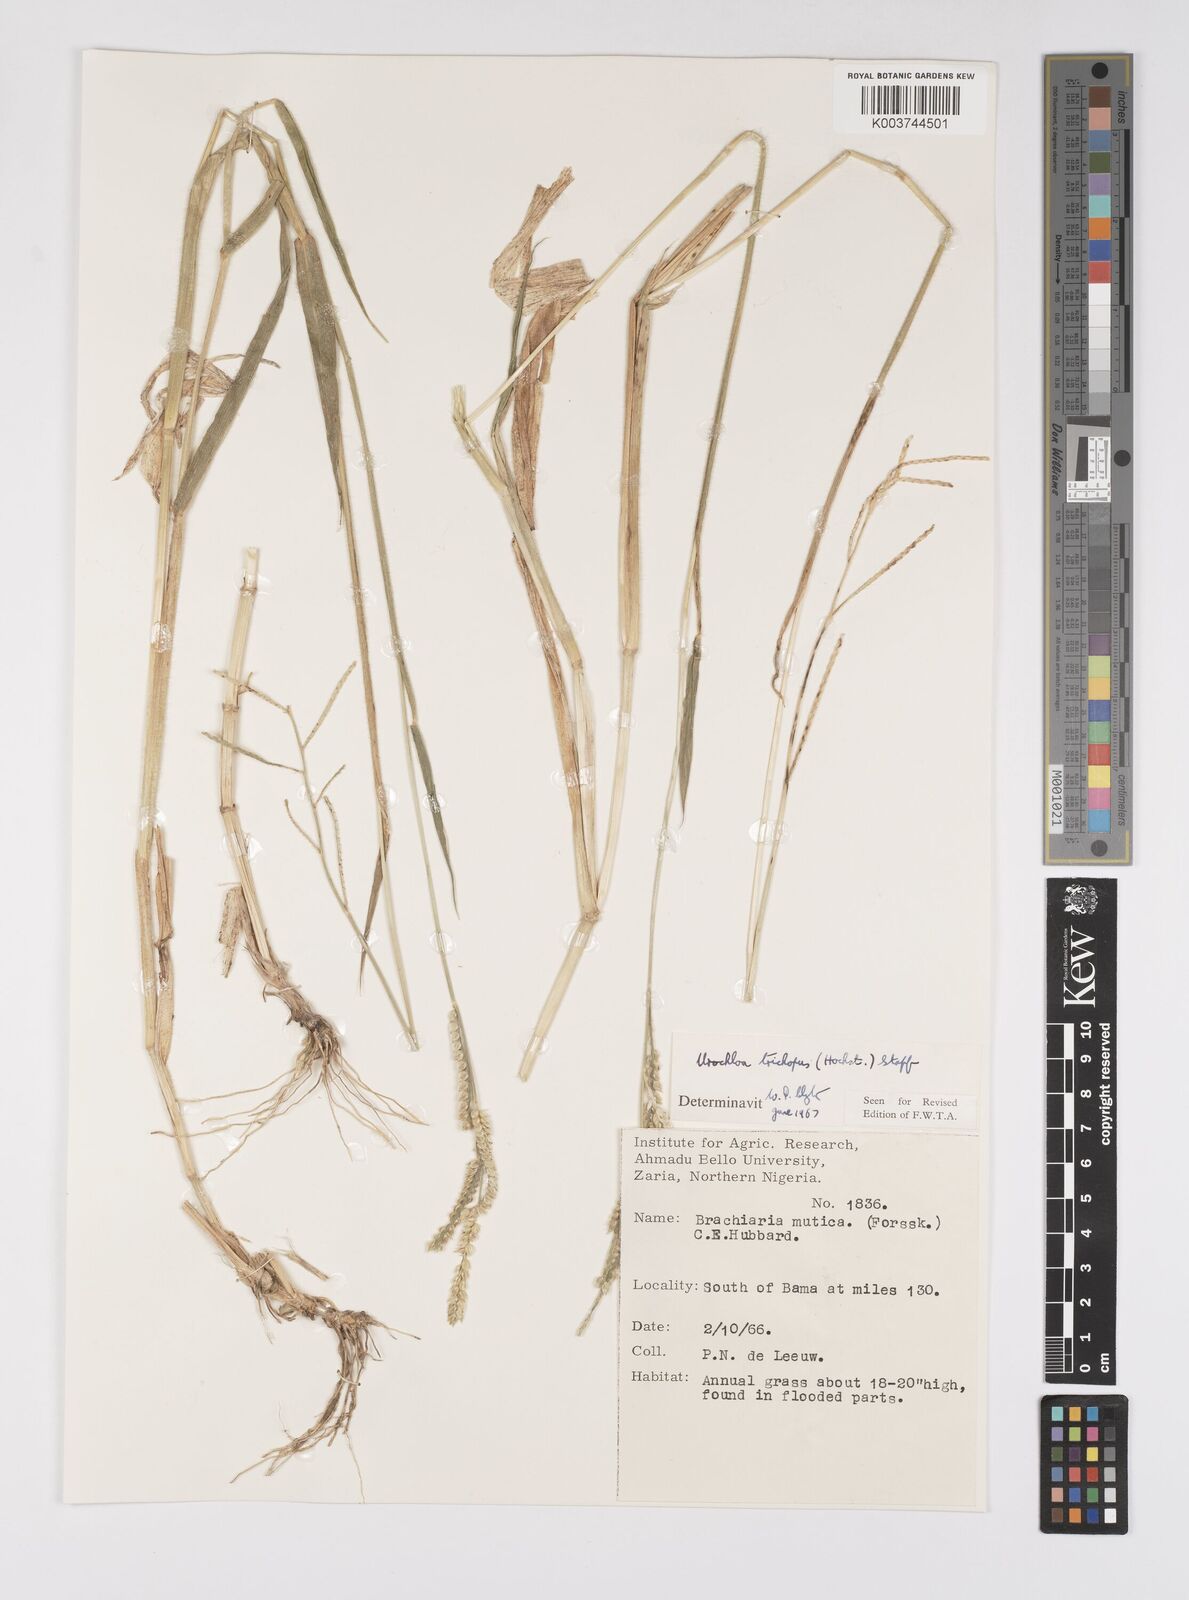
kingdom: Plantae
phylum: Tracheophyta
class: Liliopsida
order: Poales
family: Poaceae
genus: Urochloa
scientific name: Urochloa trichopus
